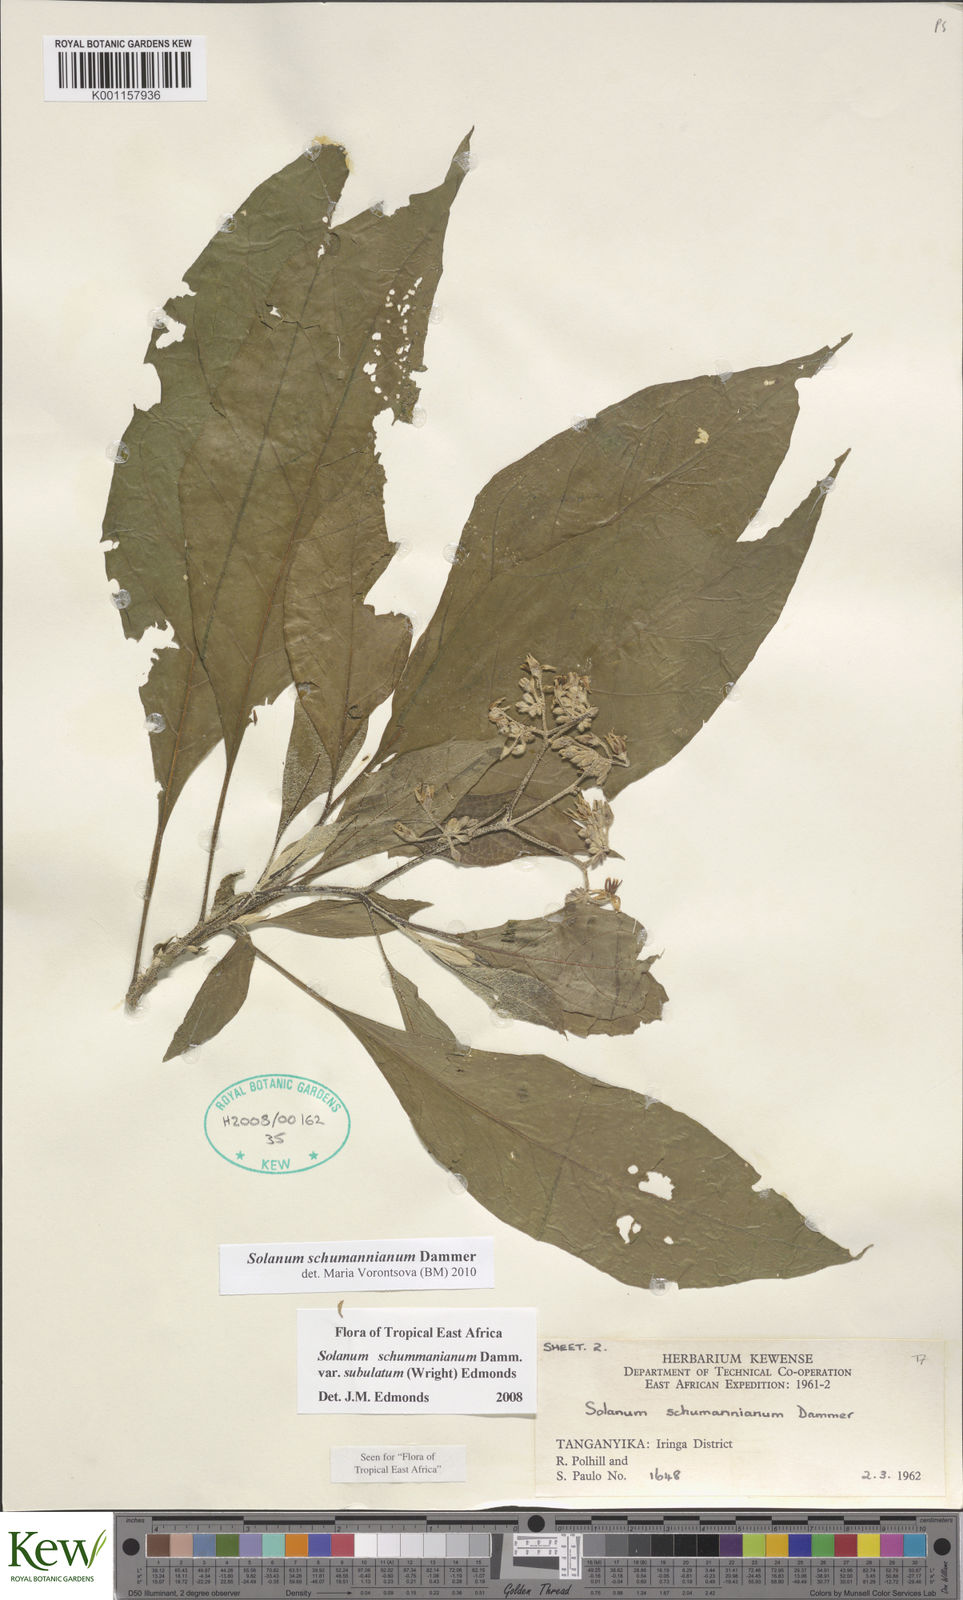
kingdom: Plantae
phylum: Tracheophyta
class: Magnoliopsida
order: Solanales
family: Solanaceae
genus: Solanum
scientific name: Solanum schumannianum
